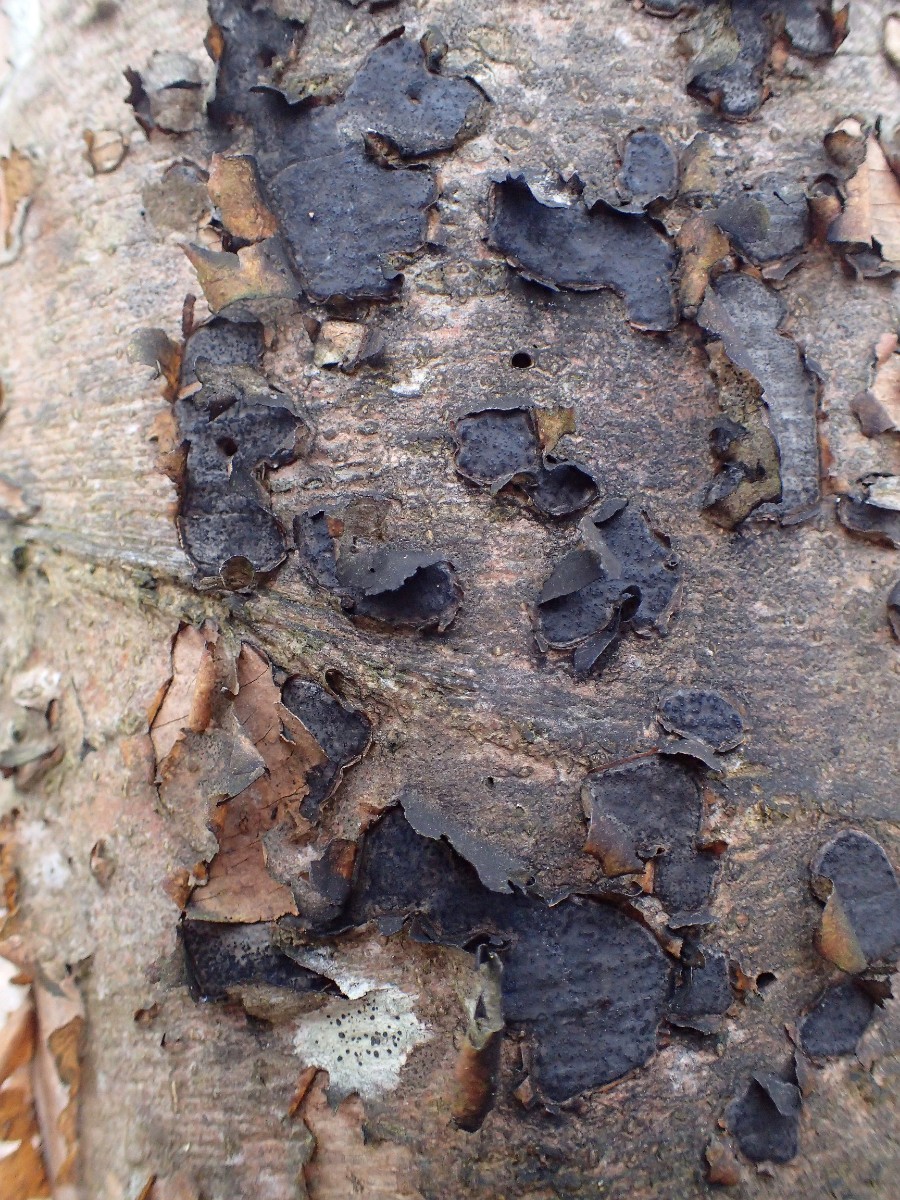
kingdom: Fungi
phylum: Ascomycota
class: Sordariomycetes
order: Xylariales
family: Graphostromataceae
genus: Biscogniauxia
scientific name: Biscogniauxia nummularia
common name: bøge-kulskive
